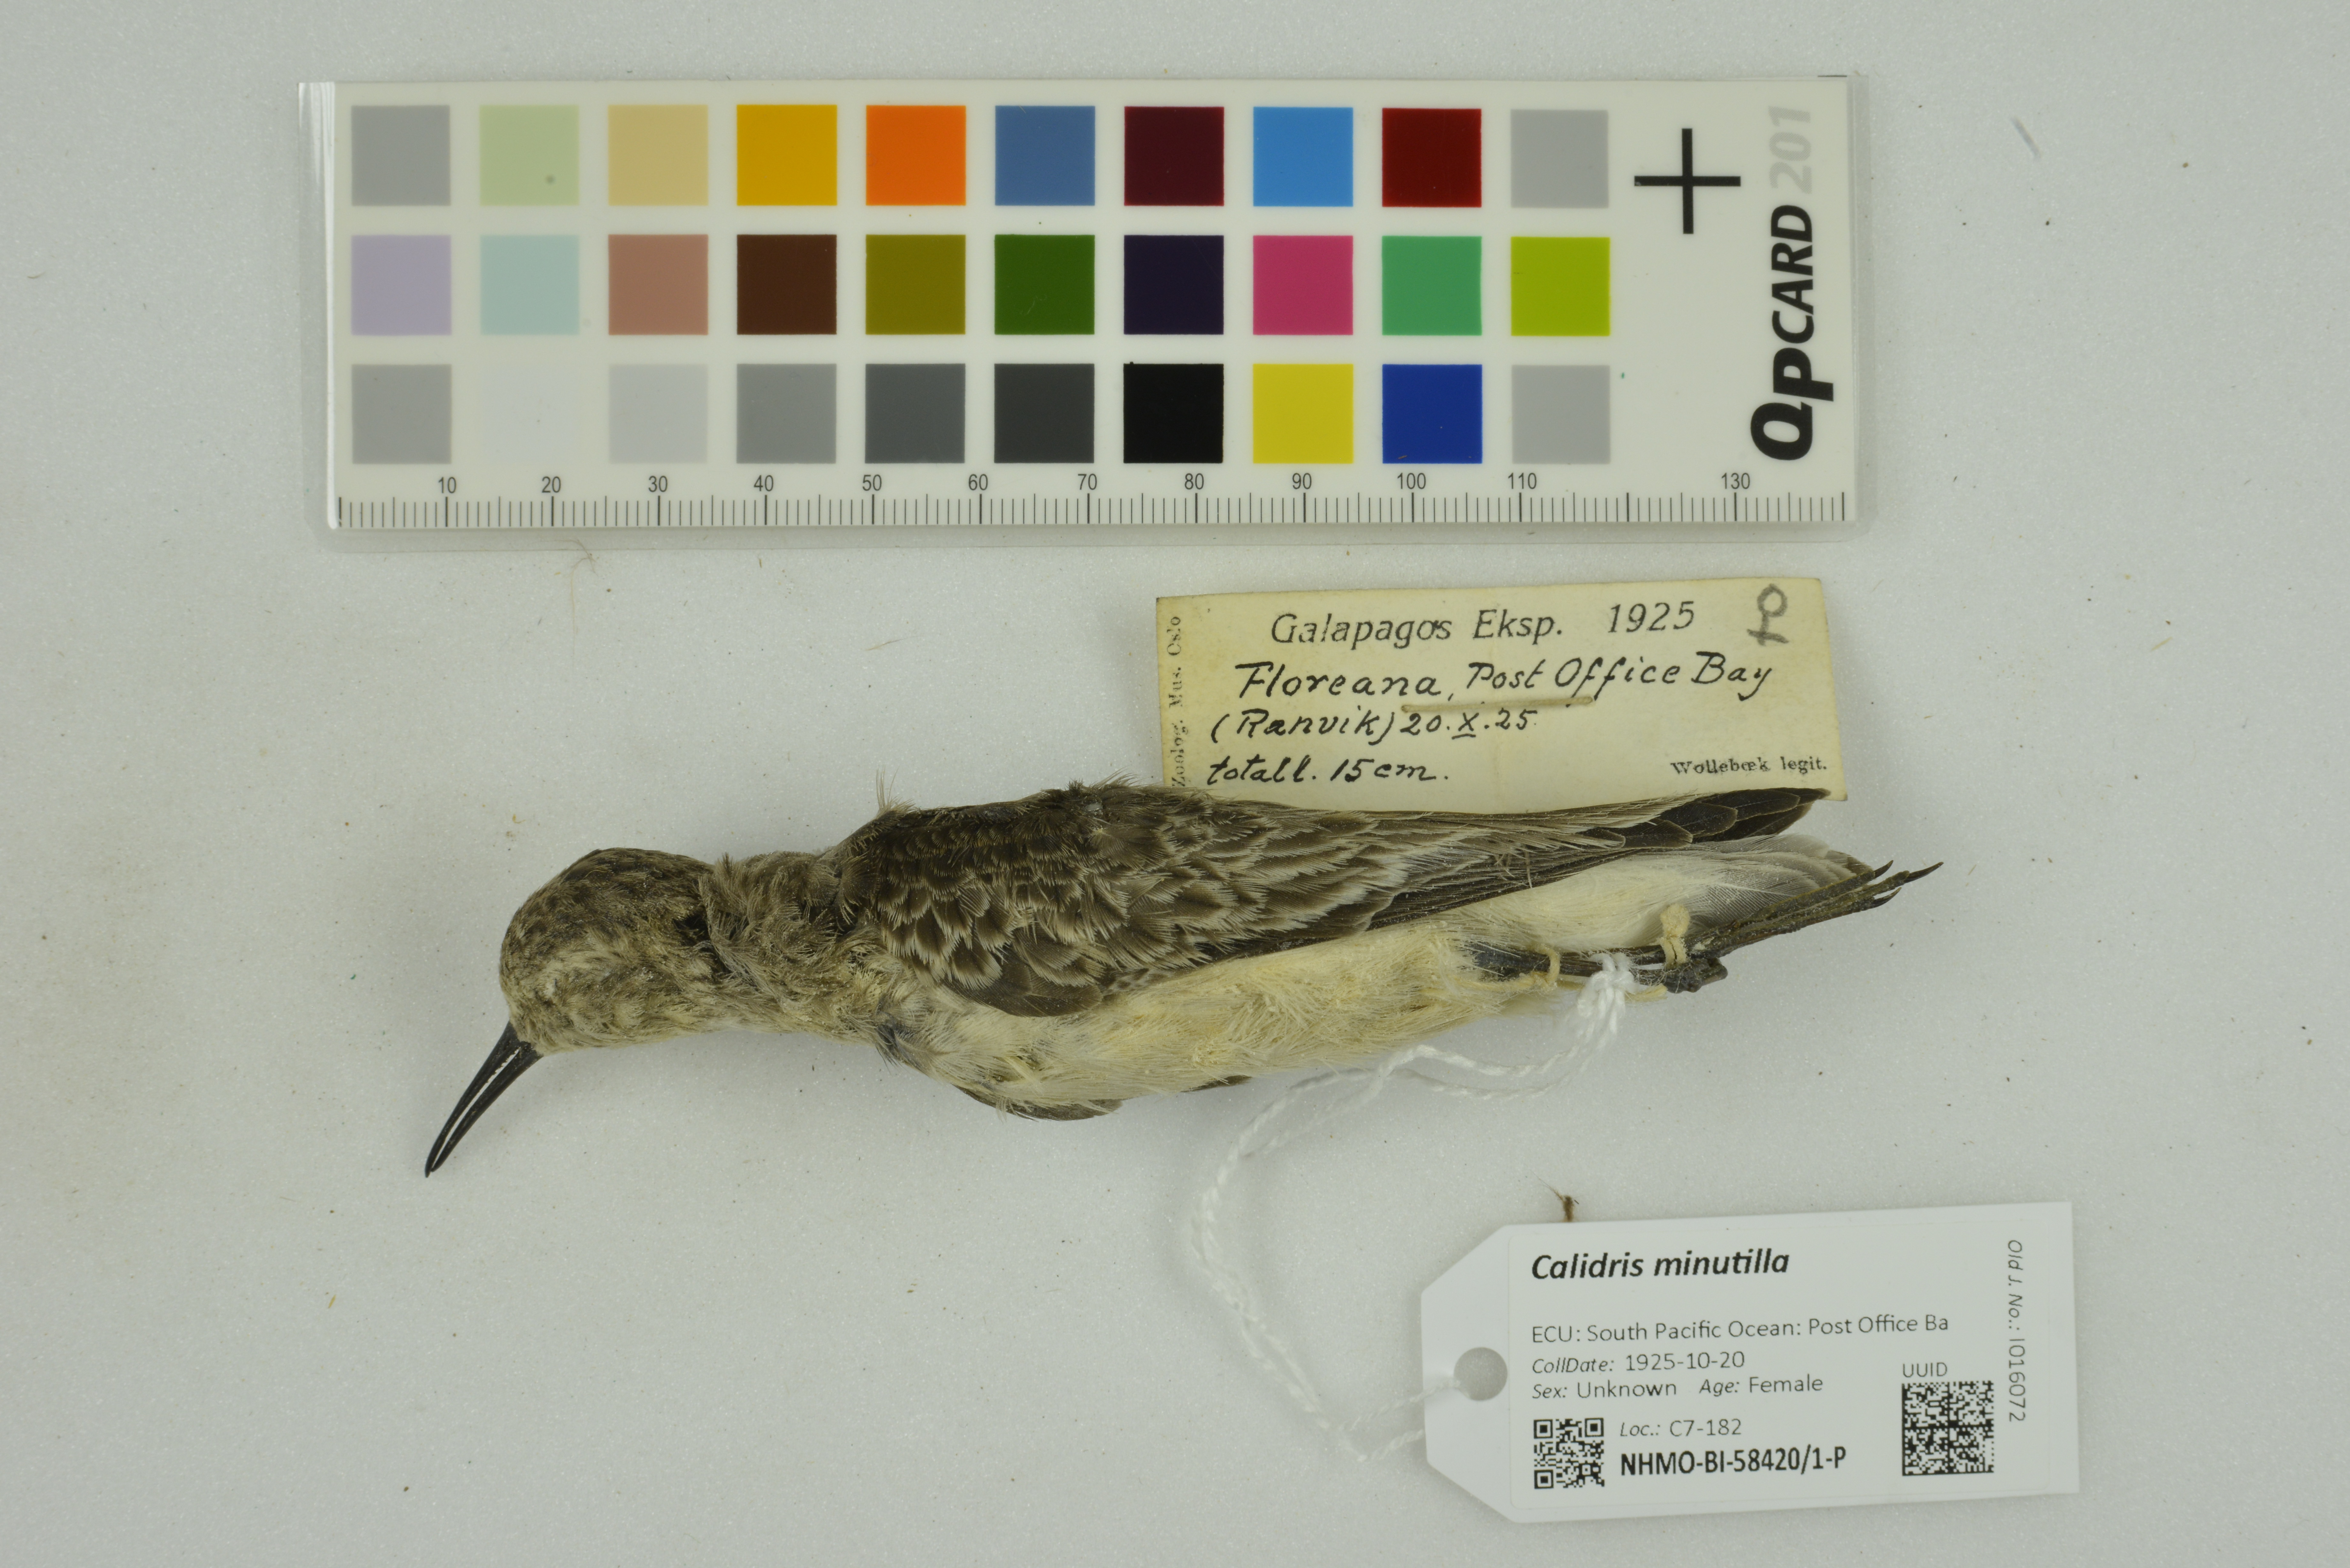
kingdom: Animalia
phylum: Chordata
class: Aves
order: Charadriiformes
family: Scolopacidae
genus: Calidris
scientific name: Calidris minutilla
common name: Least sandpiper
